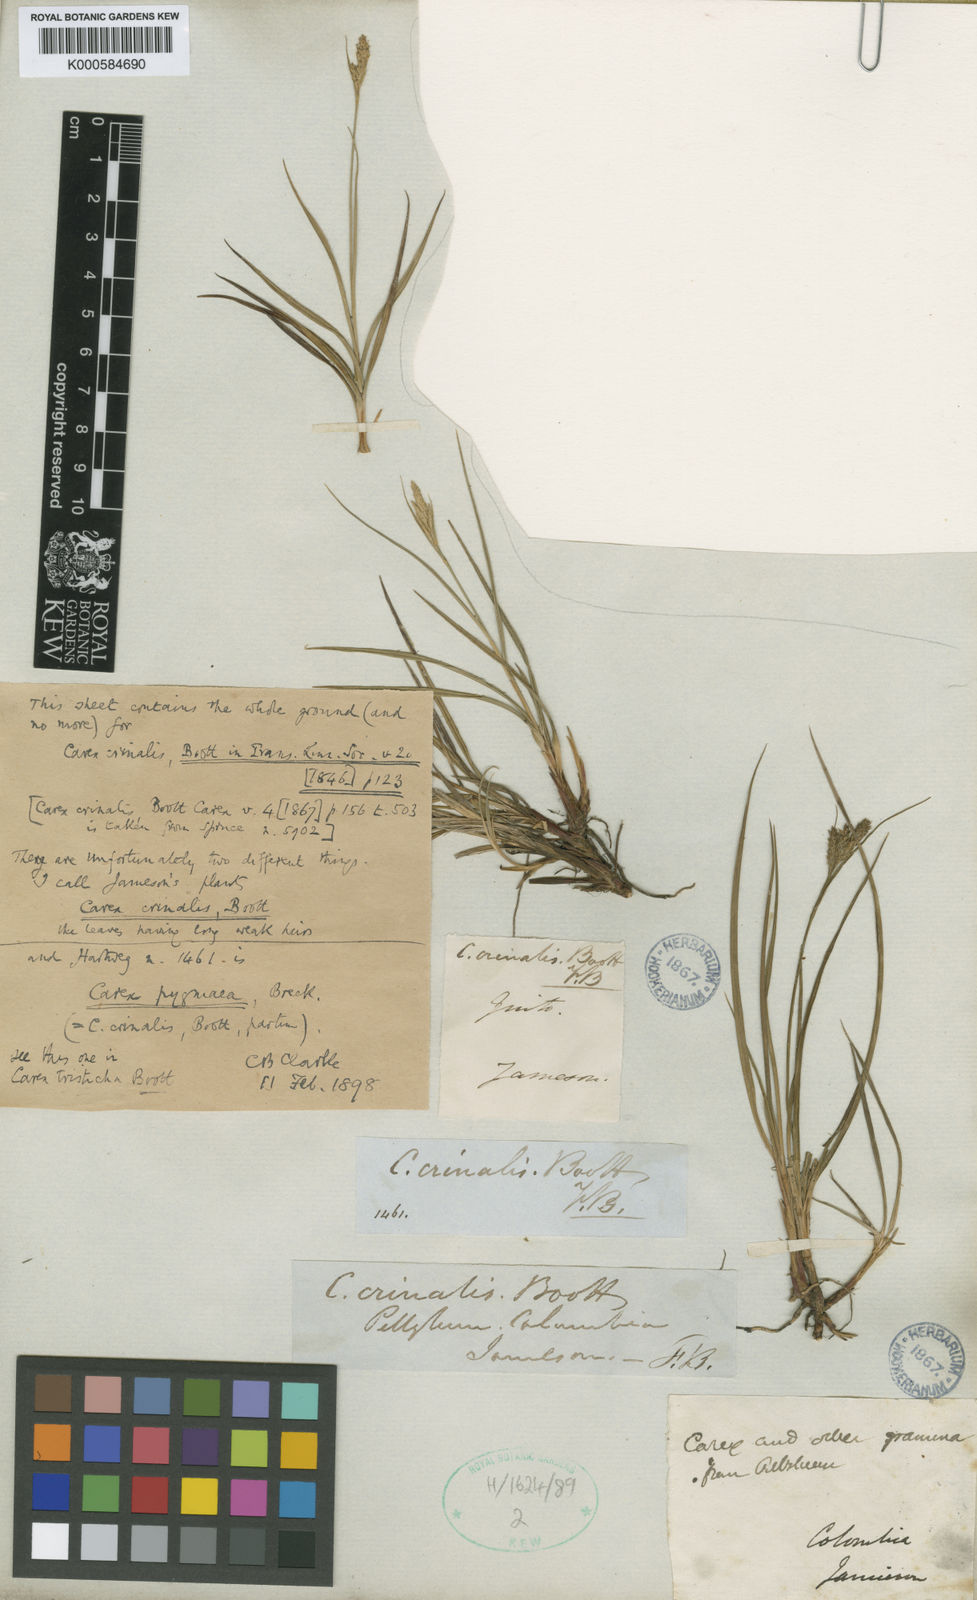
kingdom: Plantae
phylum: Tracheophyta
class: Liliopsida
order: Poales
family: Cyperaceae
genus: Carex
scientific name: Carex crinalis
